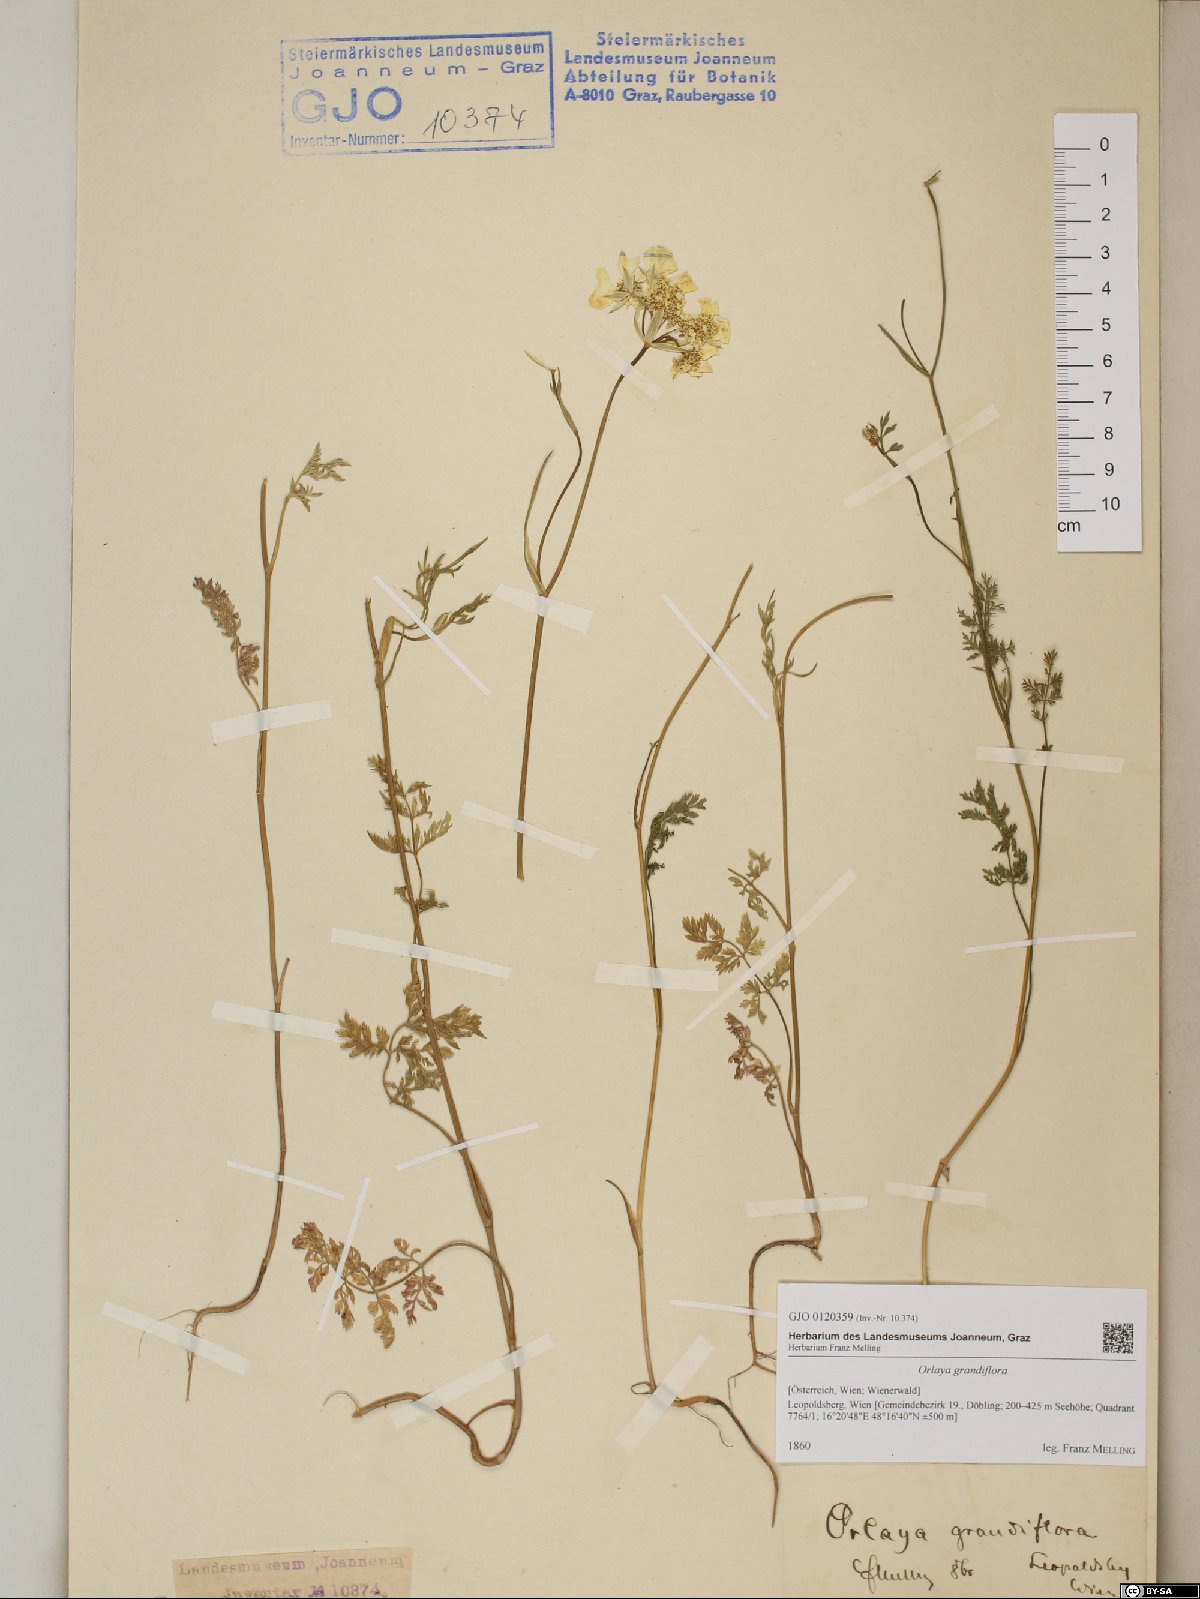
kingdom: Plantae
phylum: Tracheophyta
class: Magnoliopsida
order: Apiales
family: Apiaceae
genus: Orlaya
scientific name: Orlaya grandiflora
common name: White lace flower
